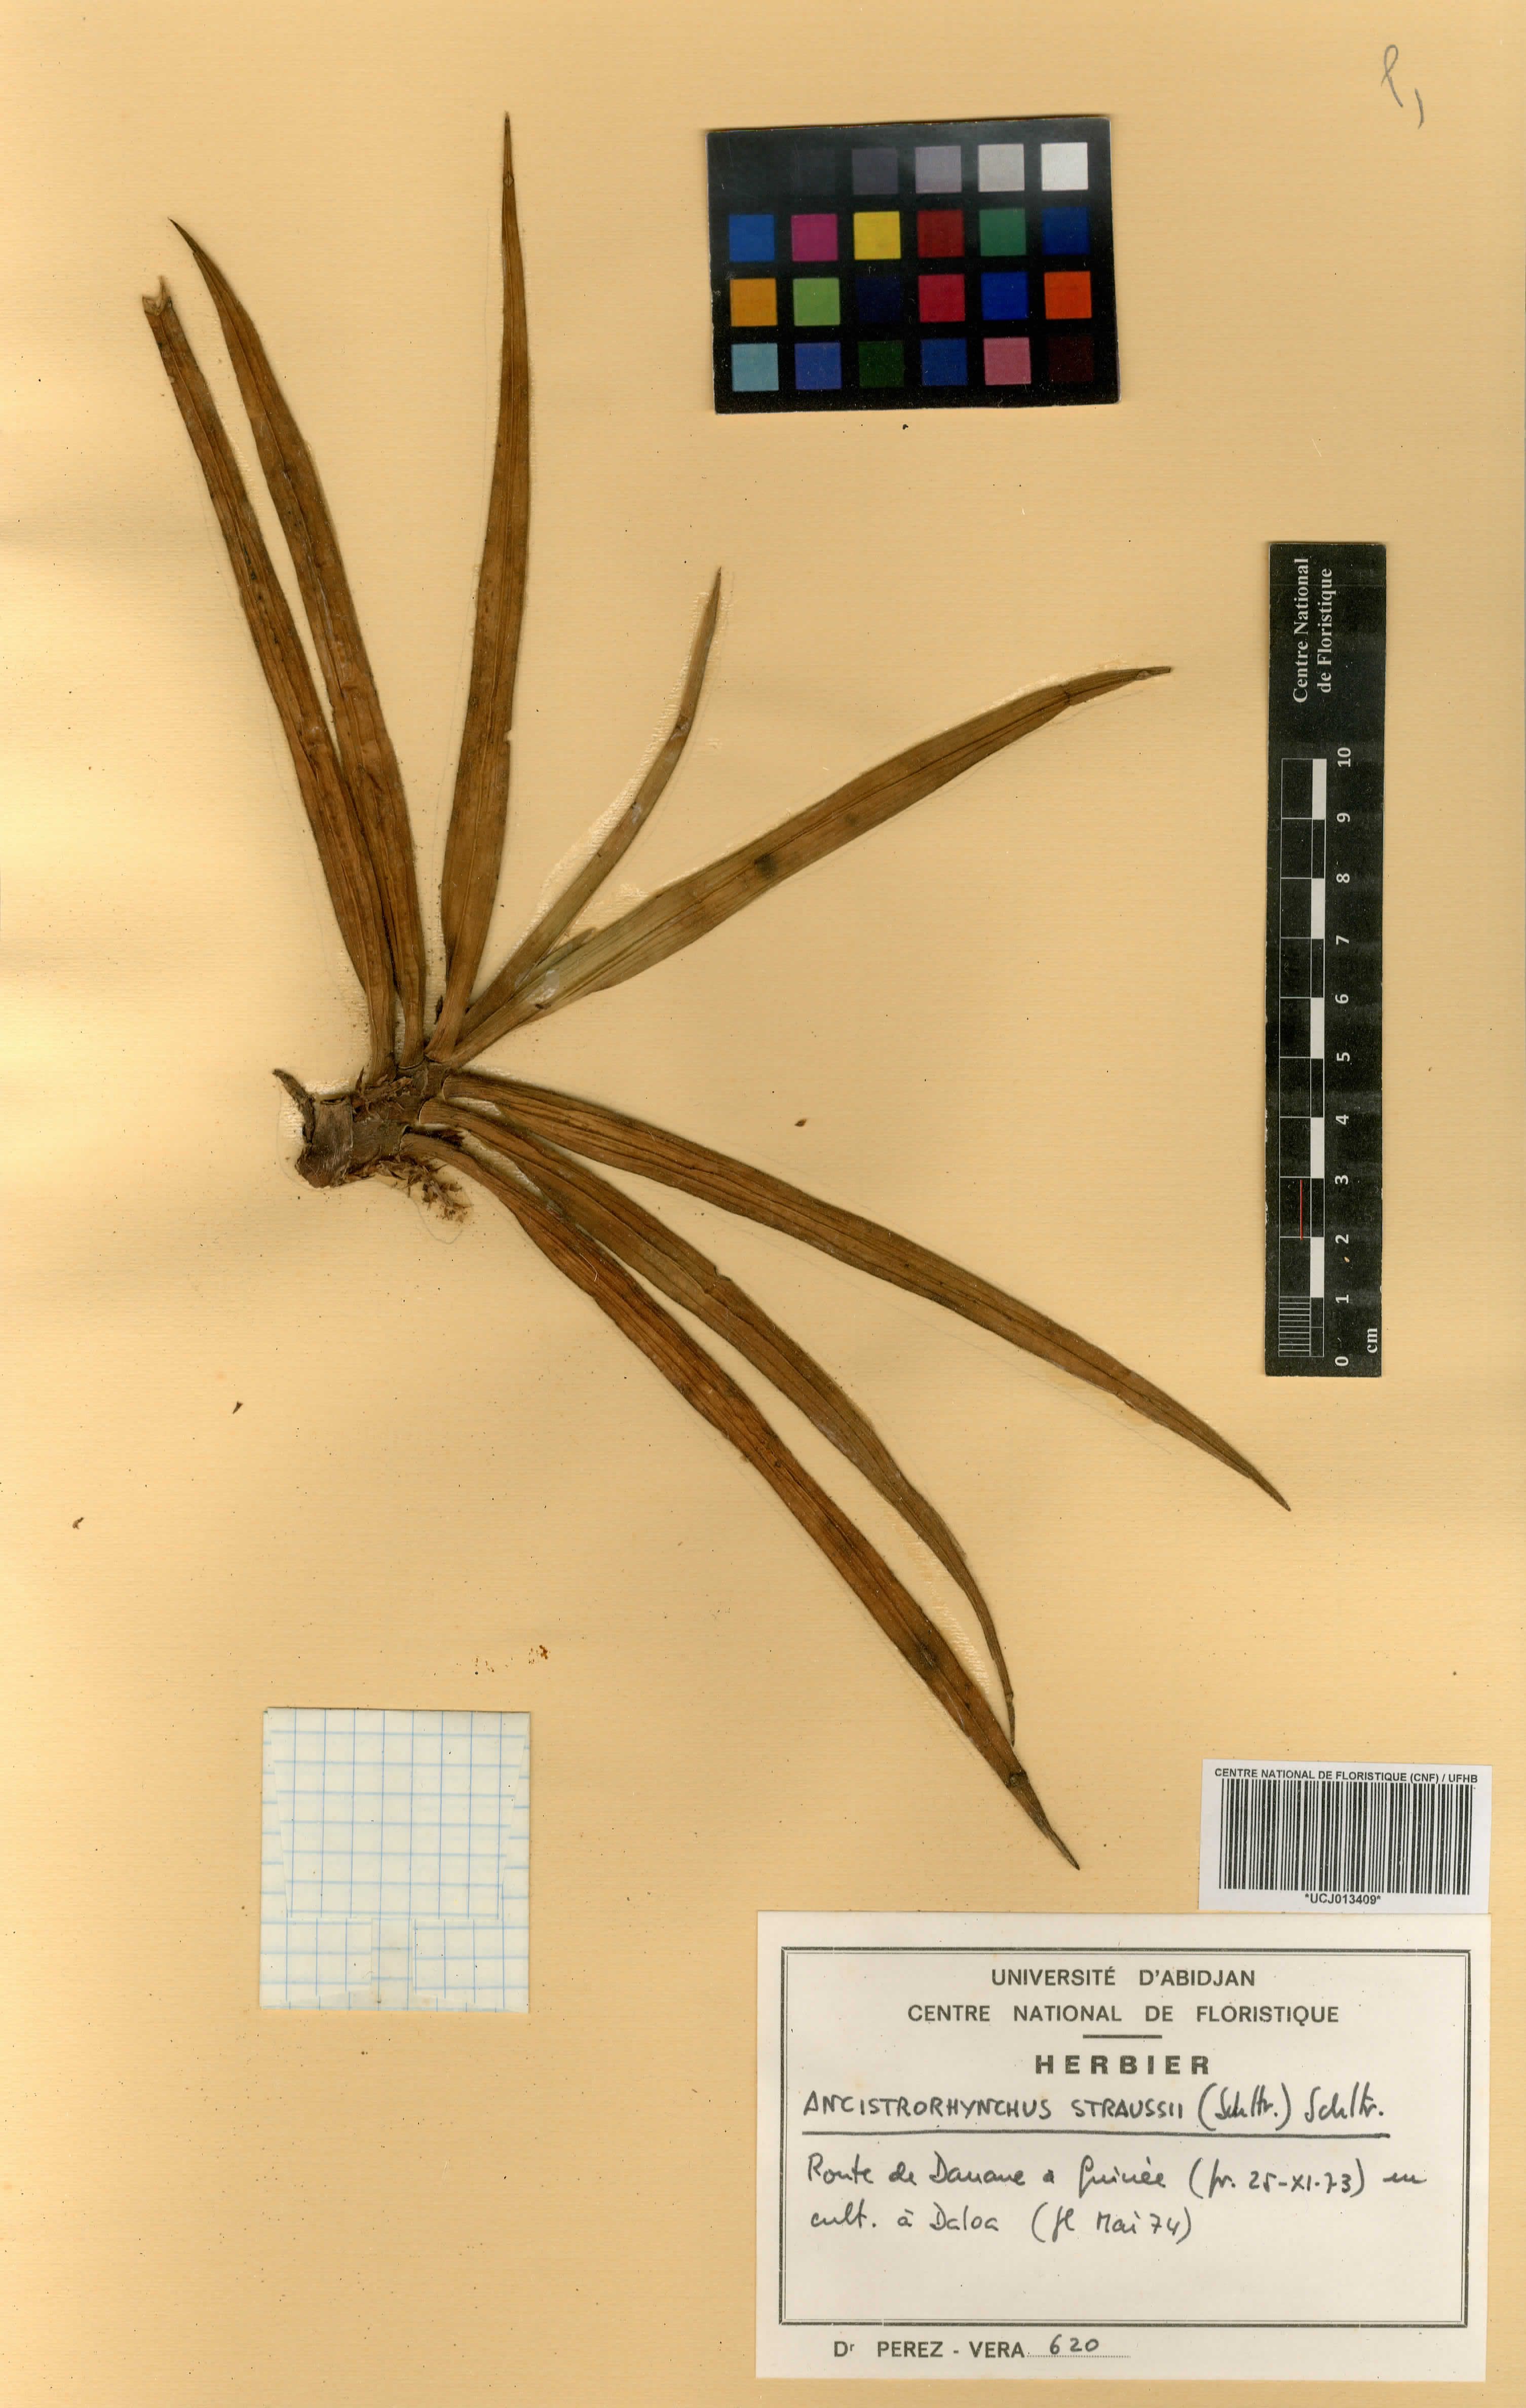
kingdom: Plantae
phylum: Tracheophyta
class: Liliopsida
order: Asparagales
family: Orchidaceae
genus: Ancistrorhynchus
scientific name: Ancistrorhynchus straussii
